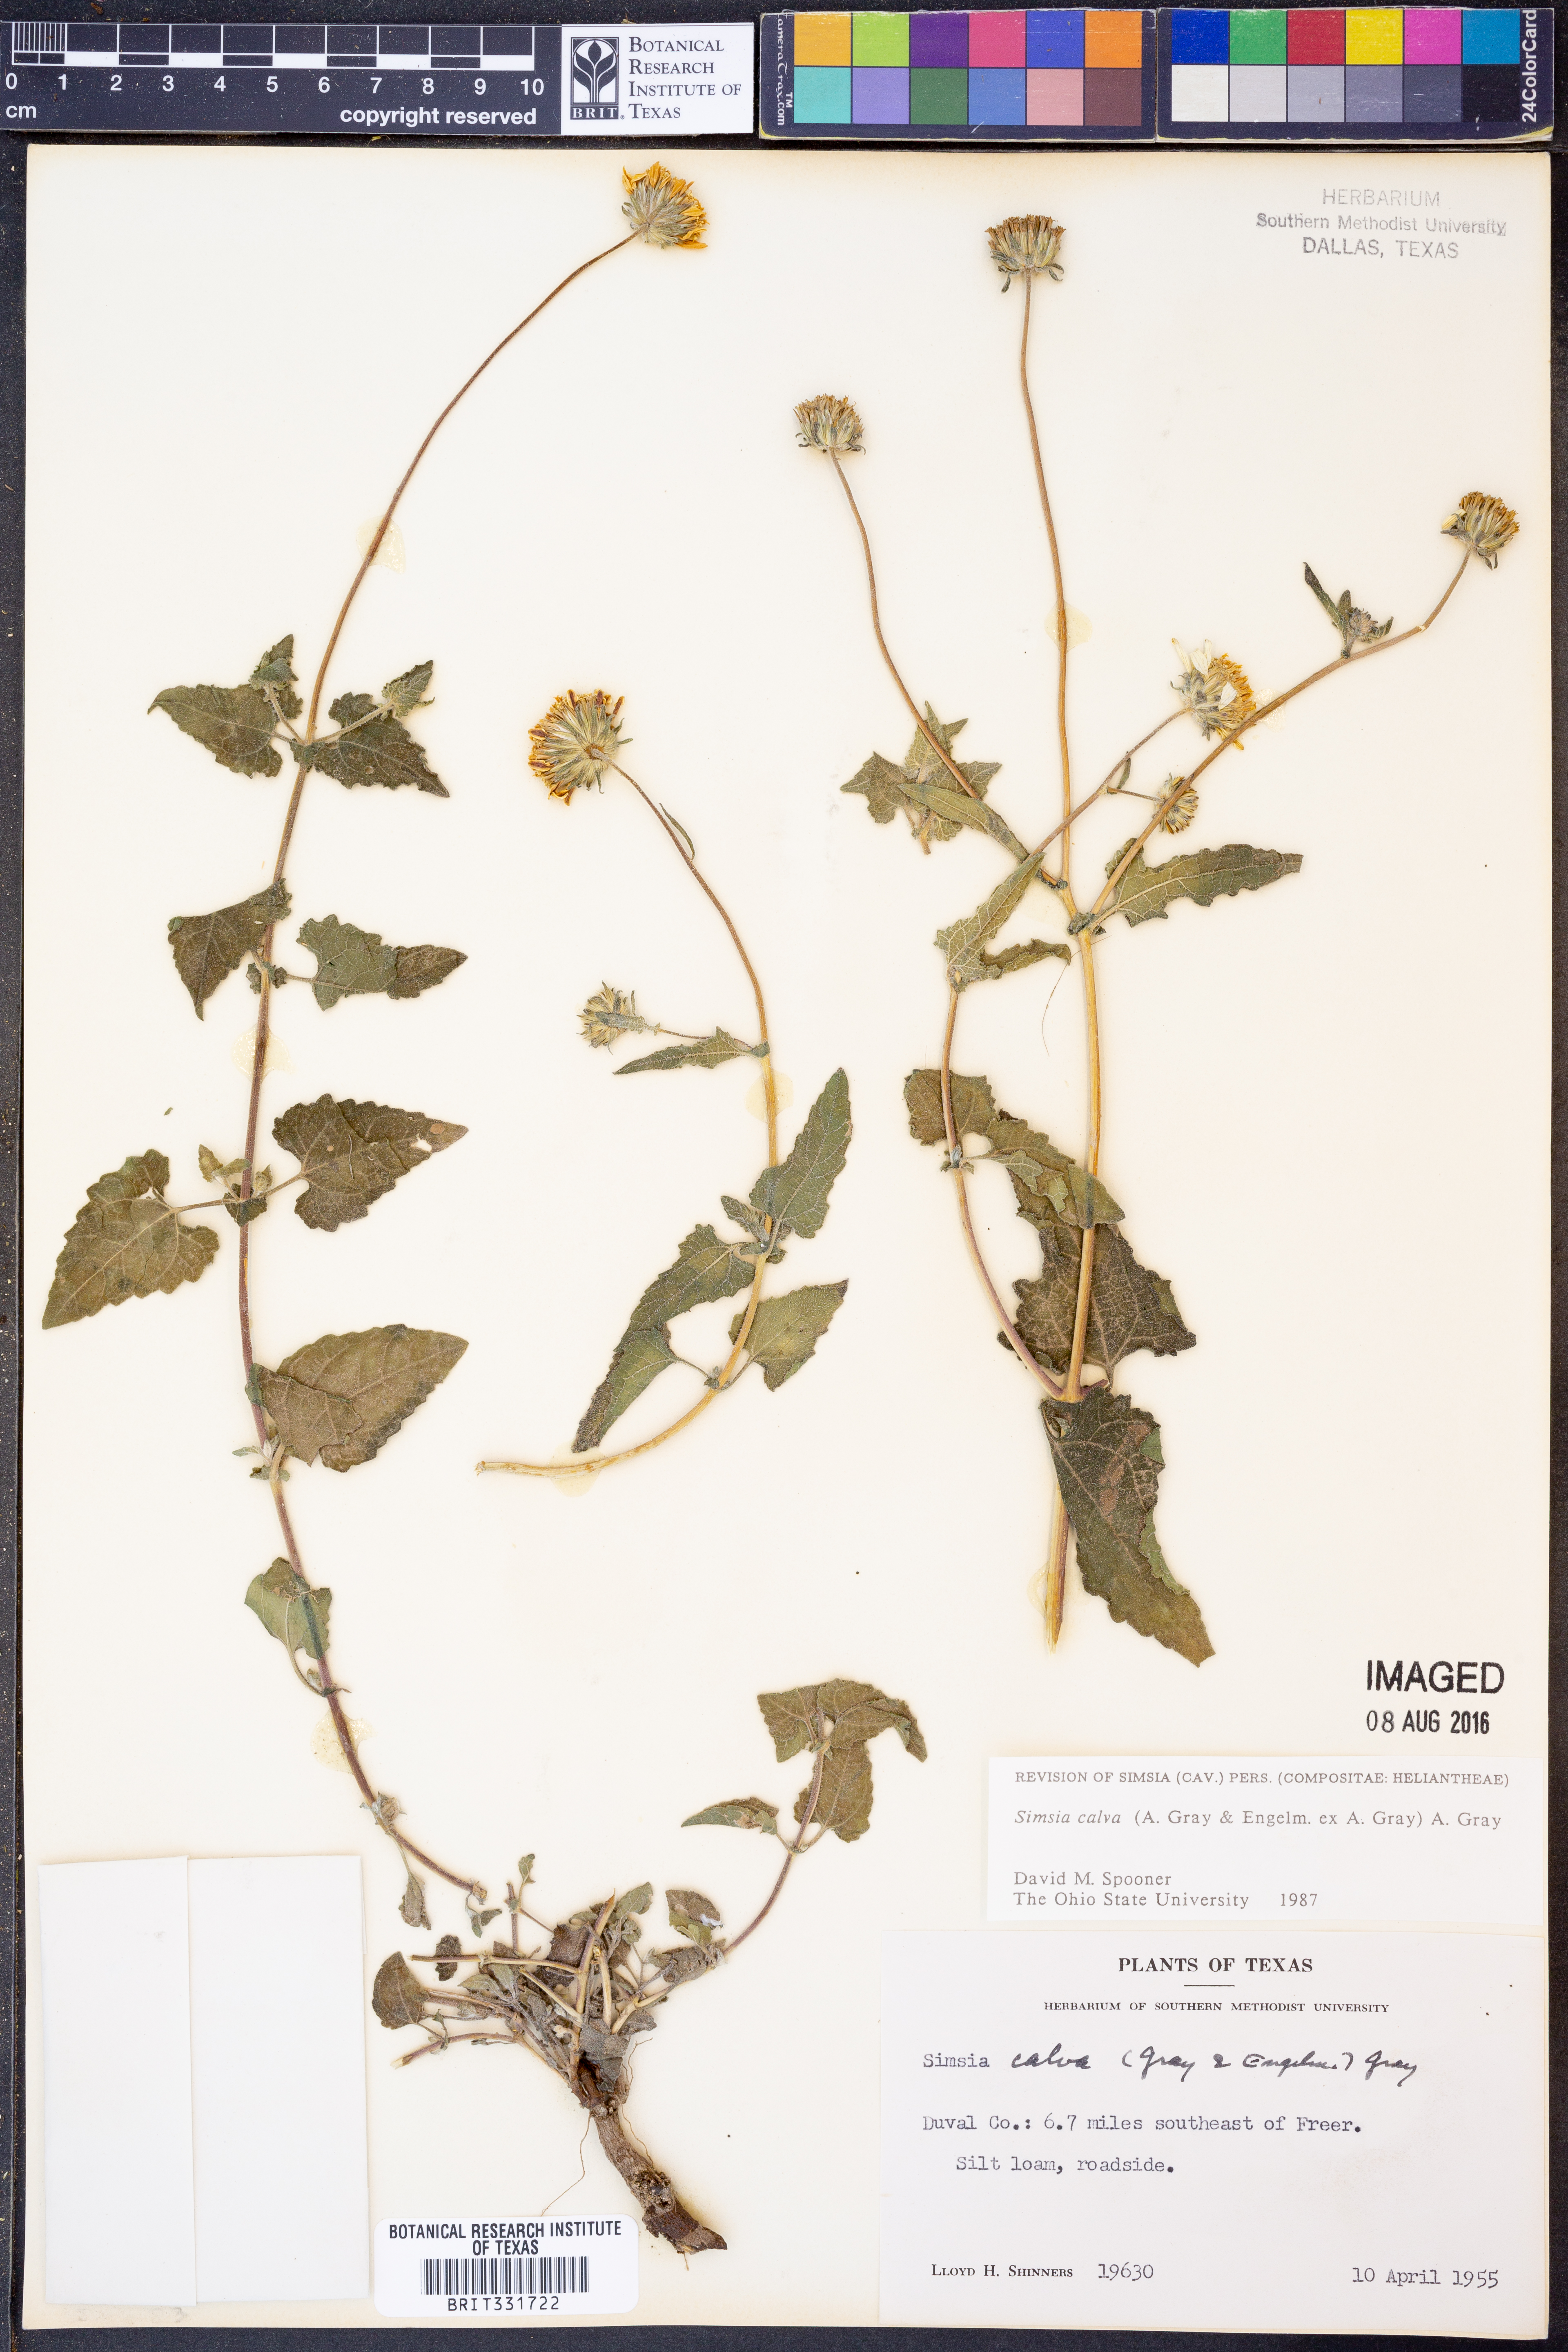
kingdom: Plantae
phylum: Tracheophyta
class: Magnoliopsida
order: Asterales
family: Asteraceae
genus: Simsia
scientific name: Simsia calva
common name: Awnless bush-sunflower
